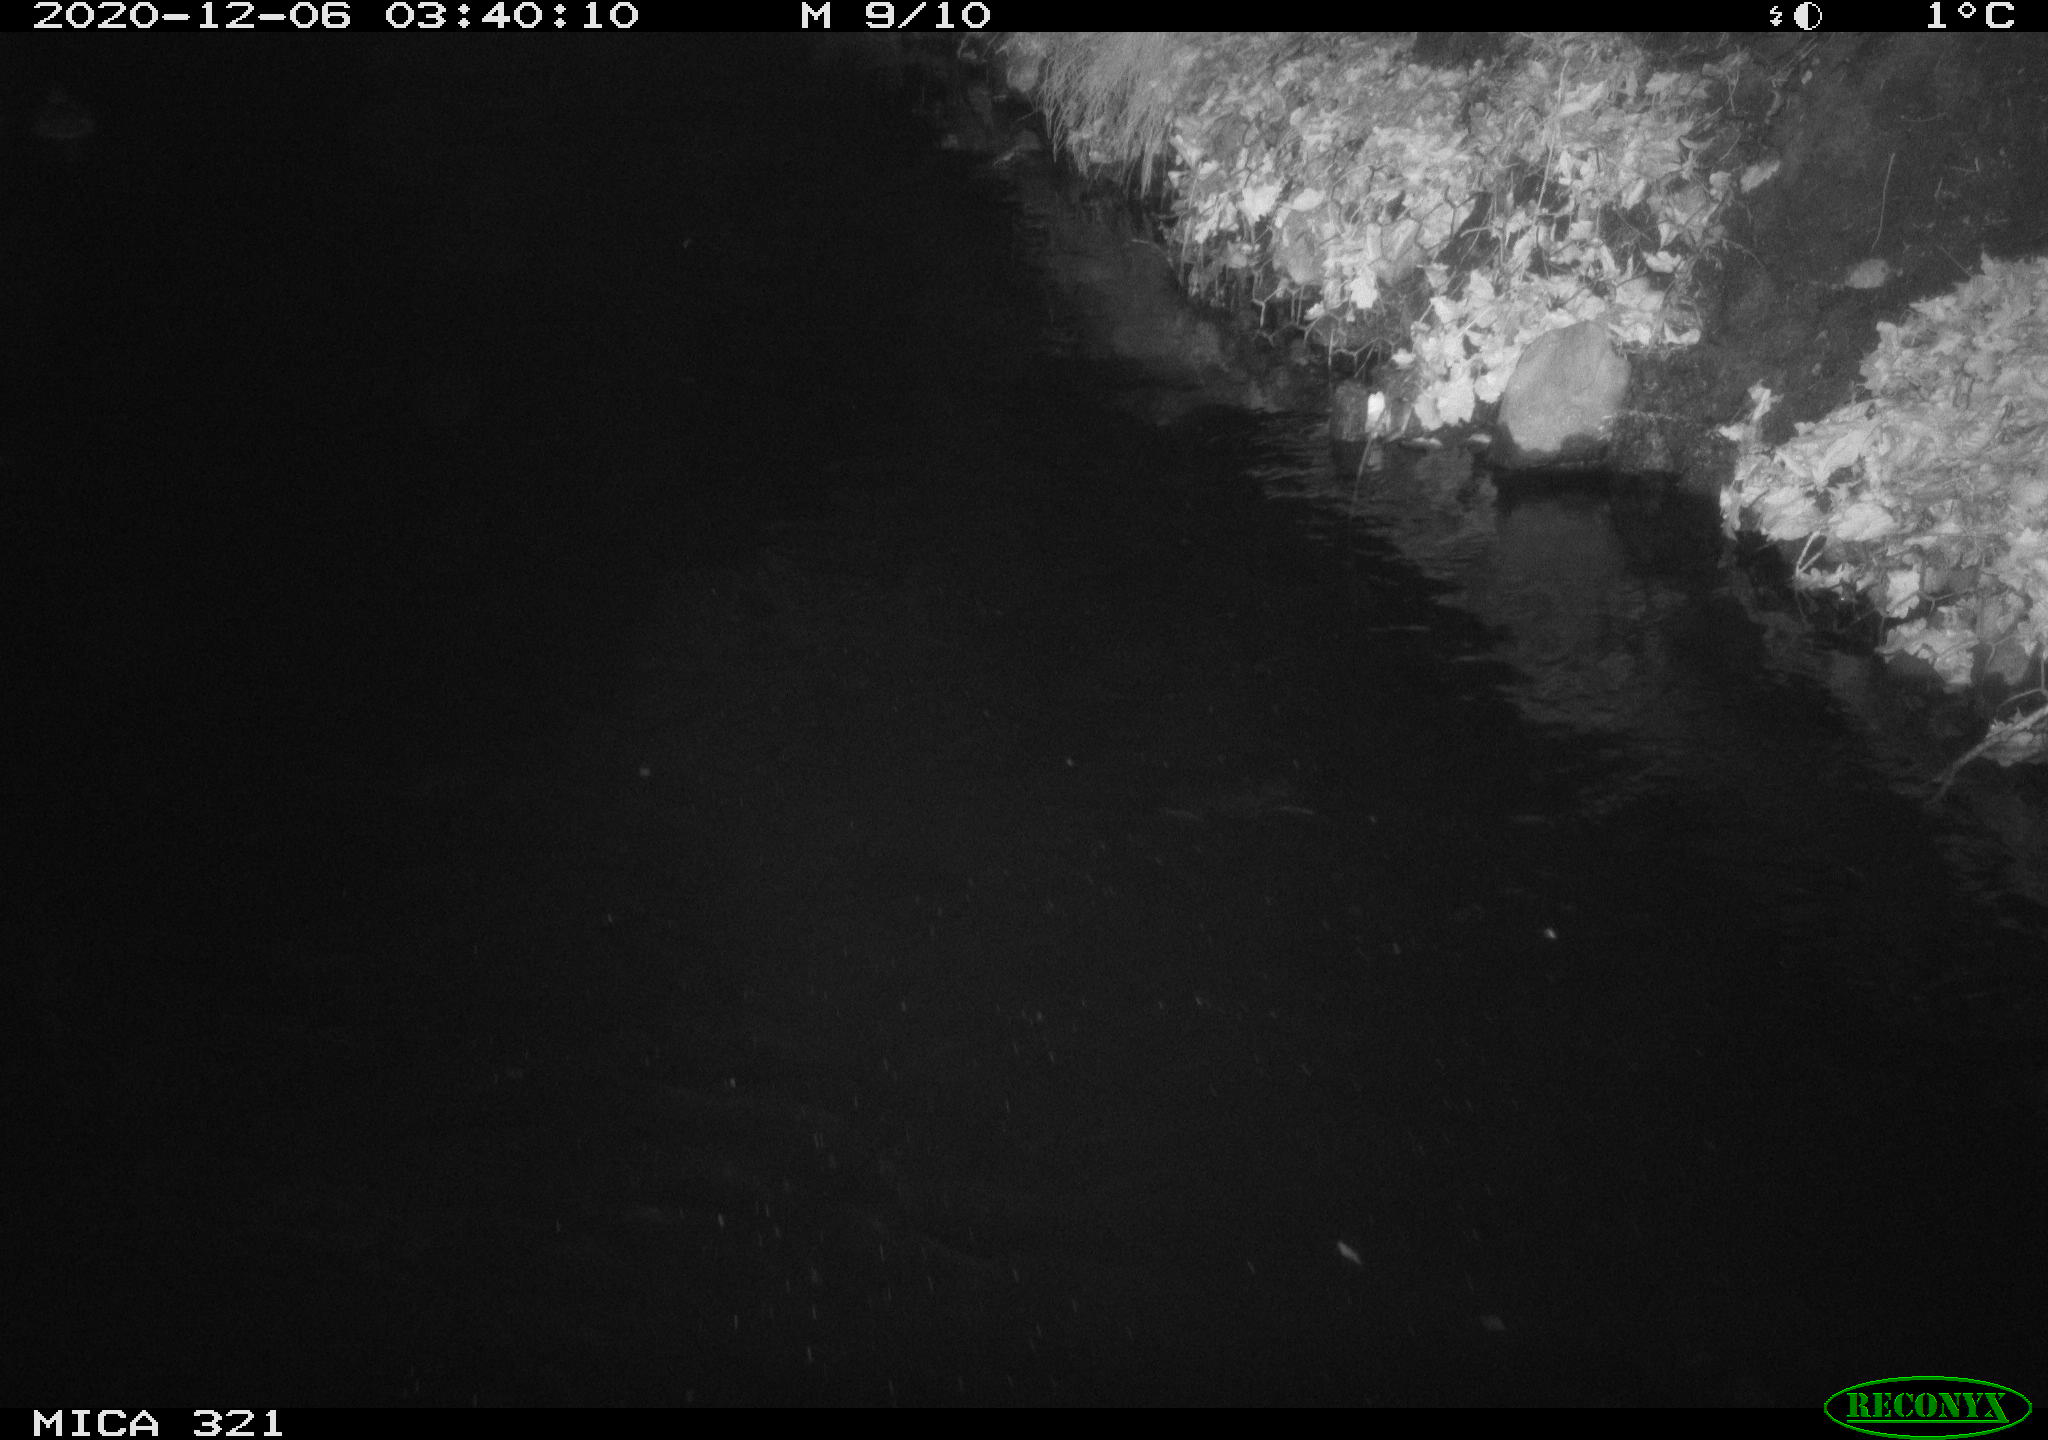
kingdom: Animalia
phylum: Chordata
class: Aves
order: Anseriformes
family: Anatidae
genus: Anas
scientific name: Anas platyrhynchos
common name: Mallard
